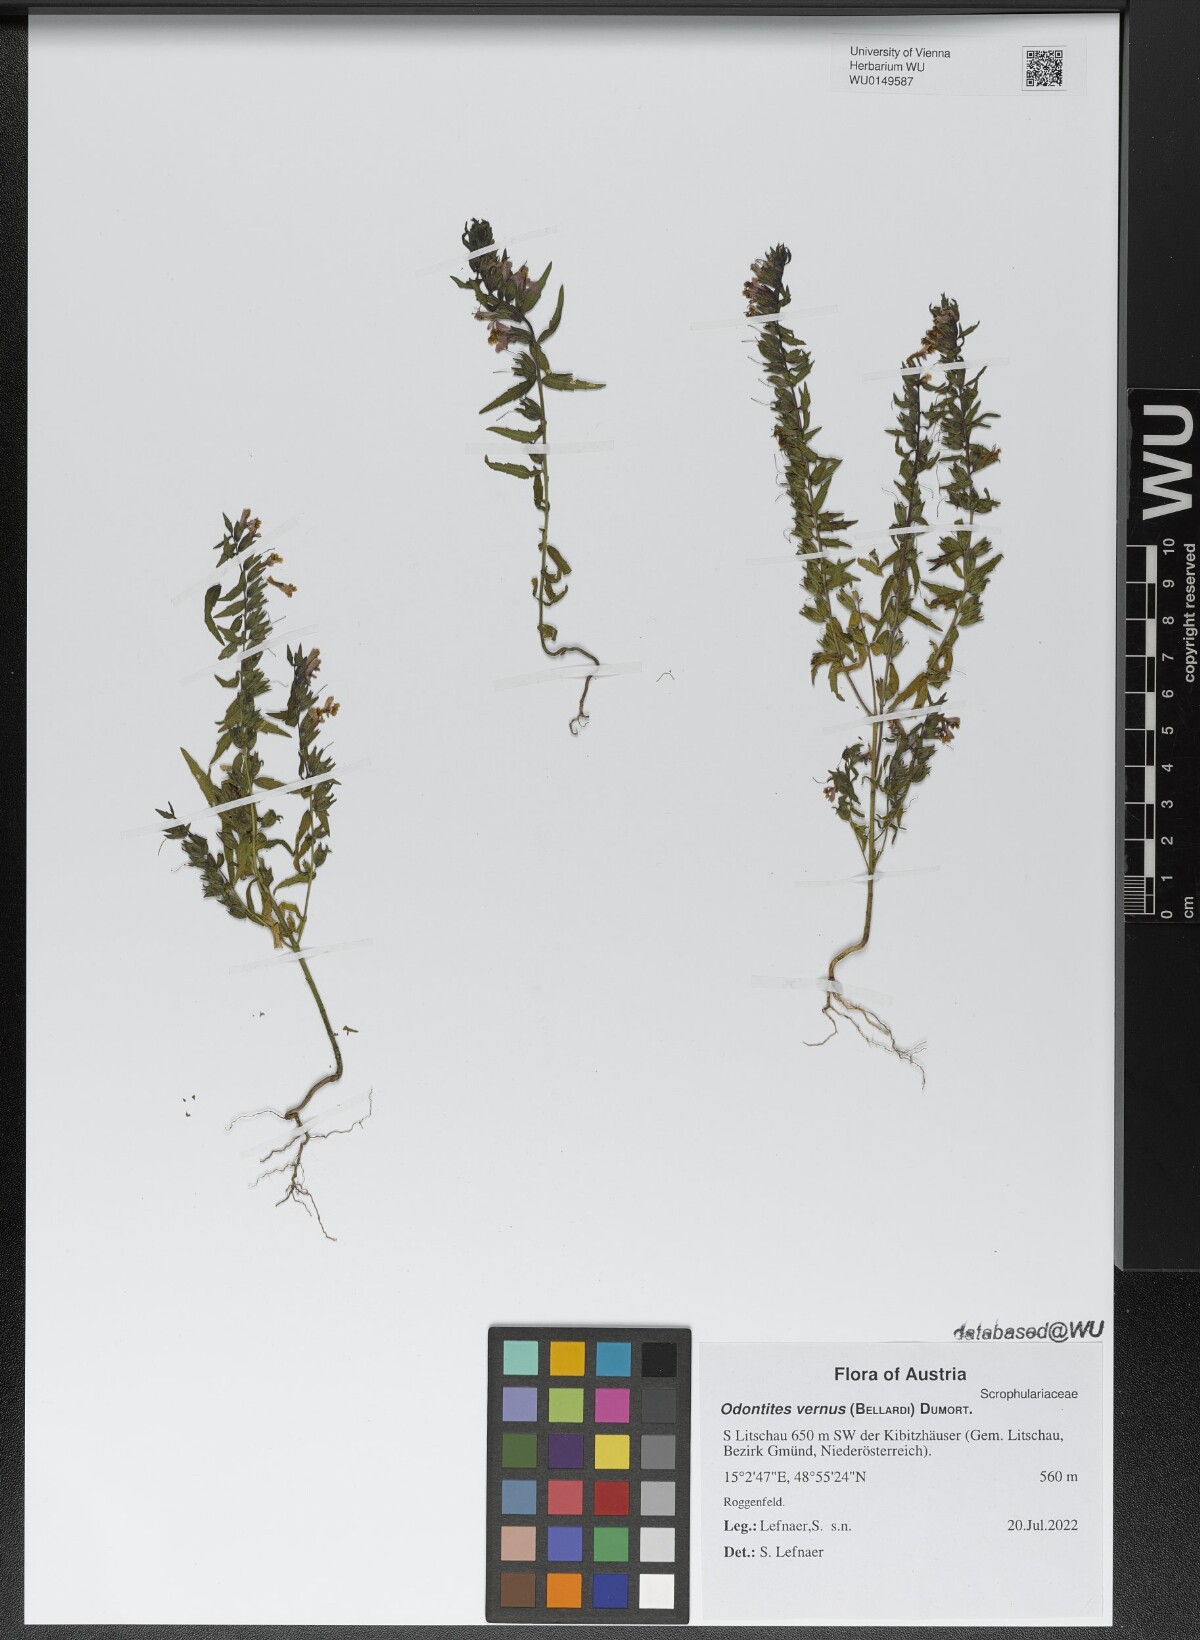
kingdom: Plantae
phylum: Tracheophyta
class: Magnoliopsida
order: Lamiales
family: Orobanchaceae
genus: Odontites
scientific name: Odontites vernus
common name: Red bartsia
